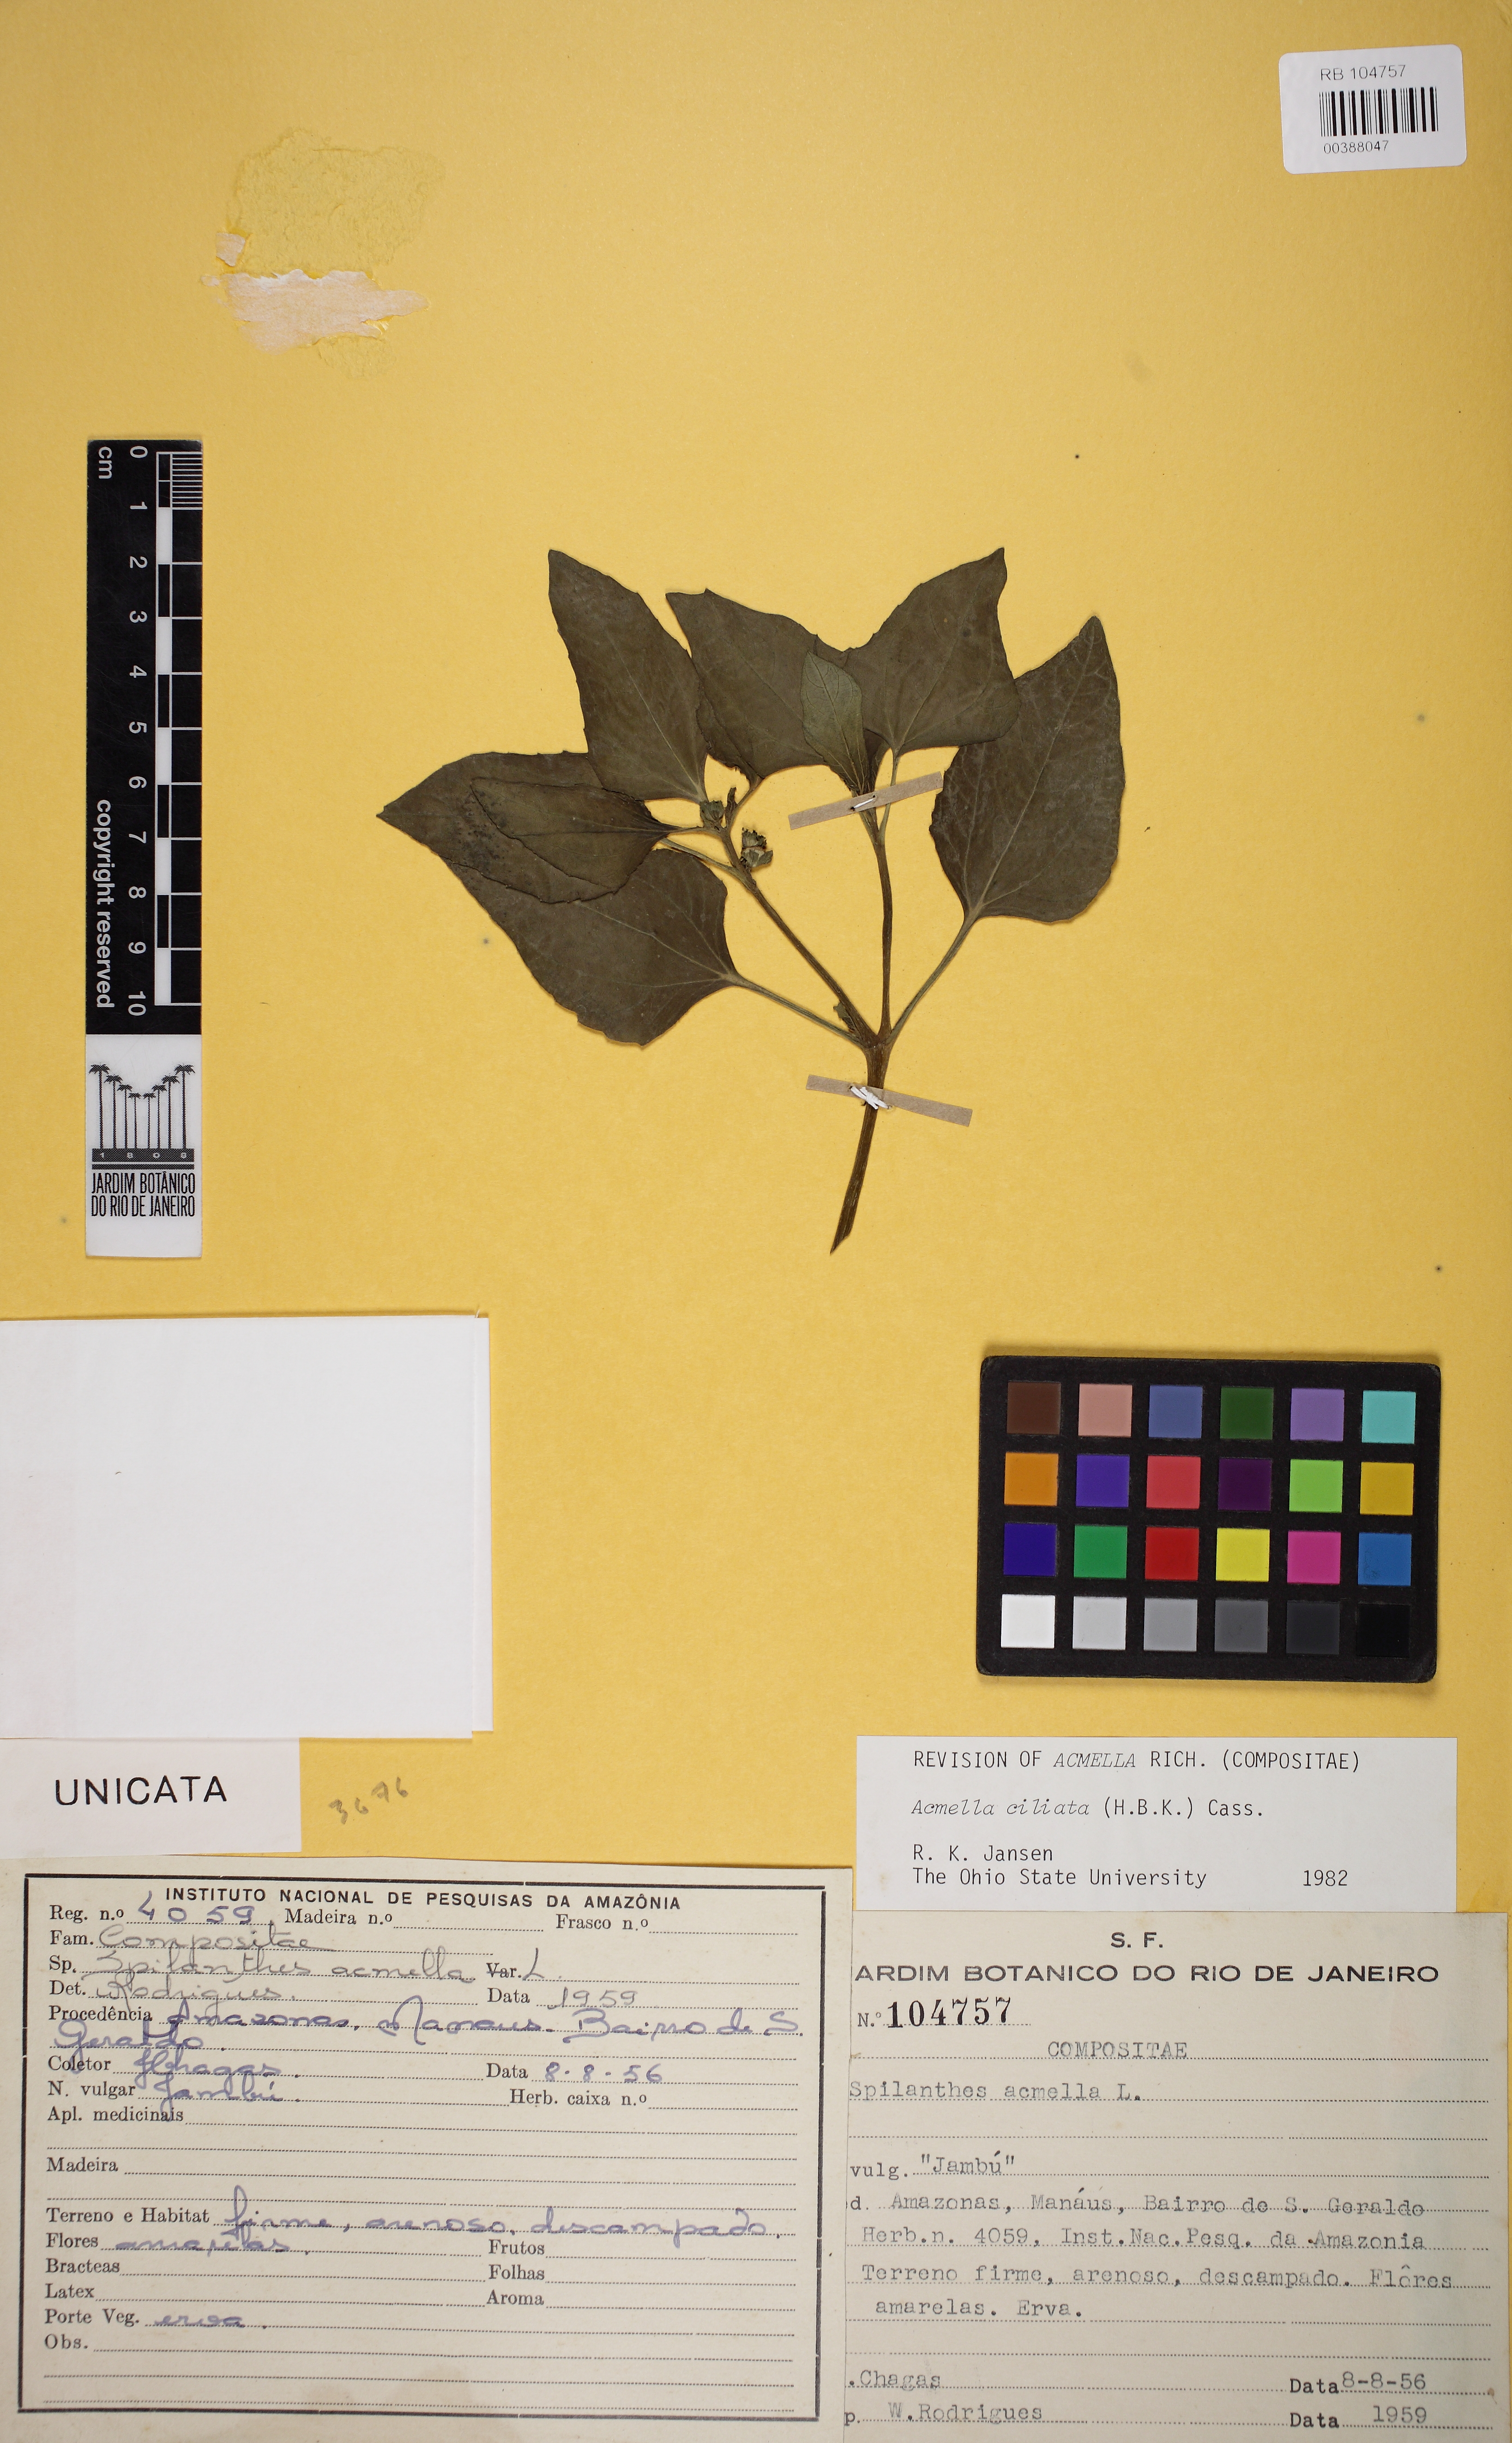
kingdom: Plantae
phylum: Tracheophyta
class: Magnoliopsida
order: Asterales
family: Asteraceae
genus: Acmella
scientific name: Acmella ciliata
